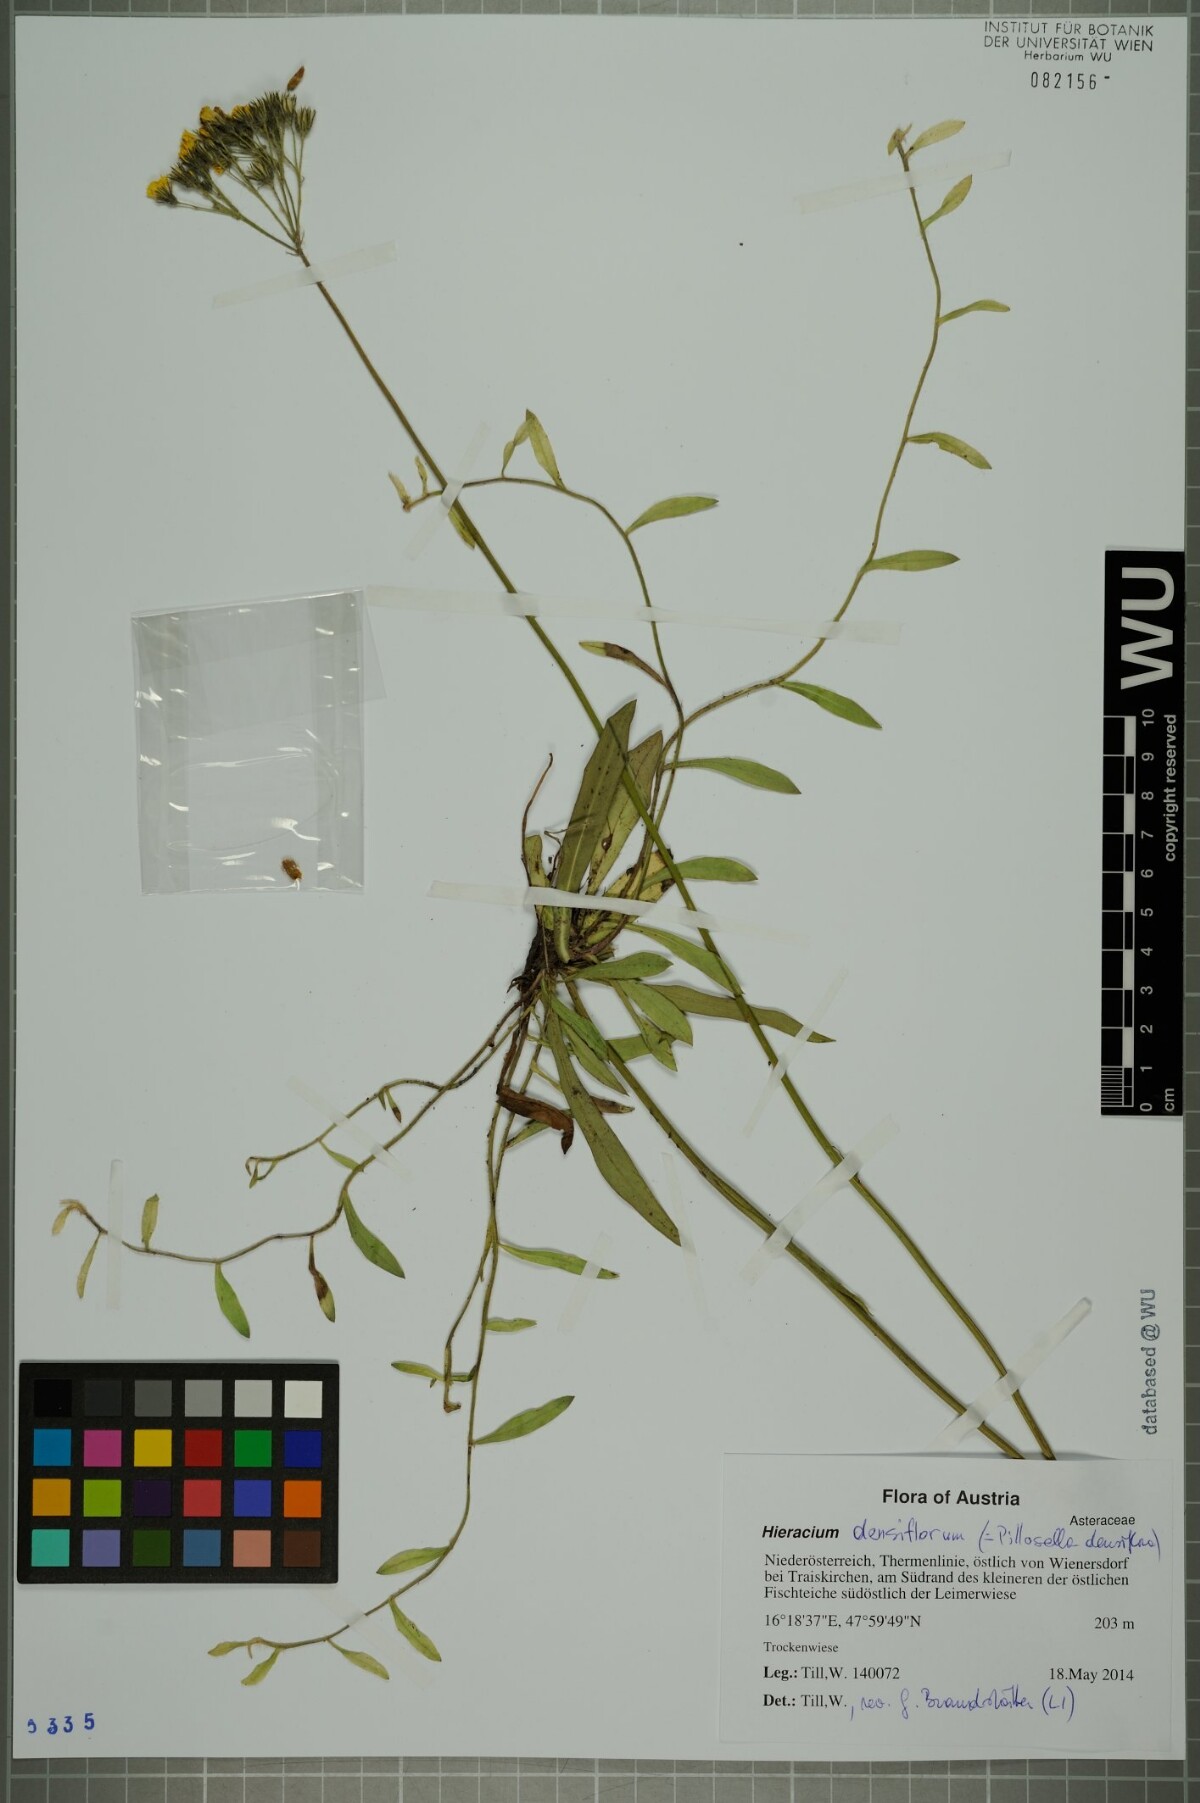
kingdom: Plantae
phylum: Tracheophyta
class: Magnoliopsida
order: Asterales
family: Asteraceae
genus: Pilosella
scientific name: Pilosella densiflora
